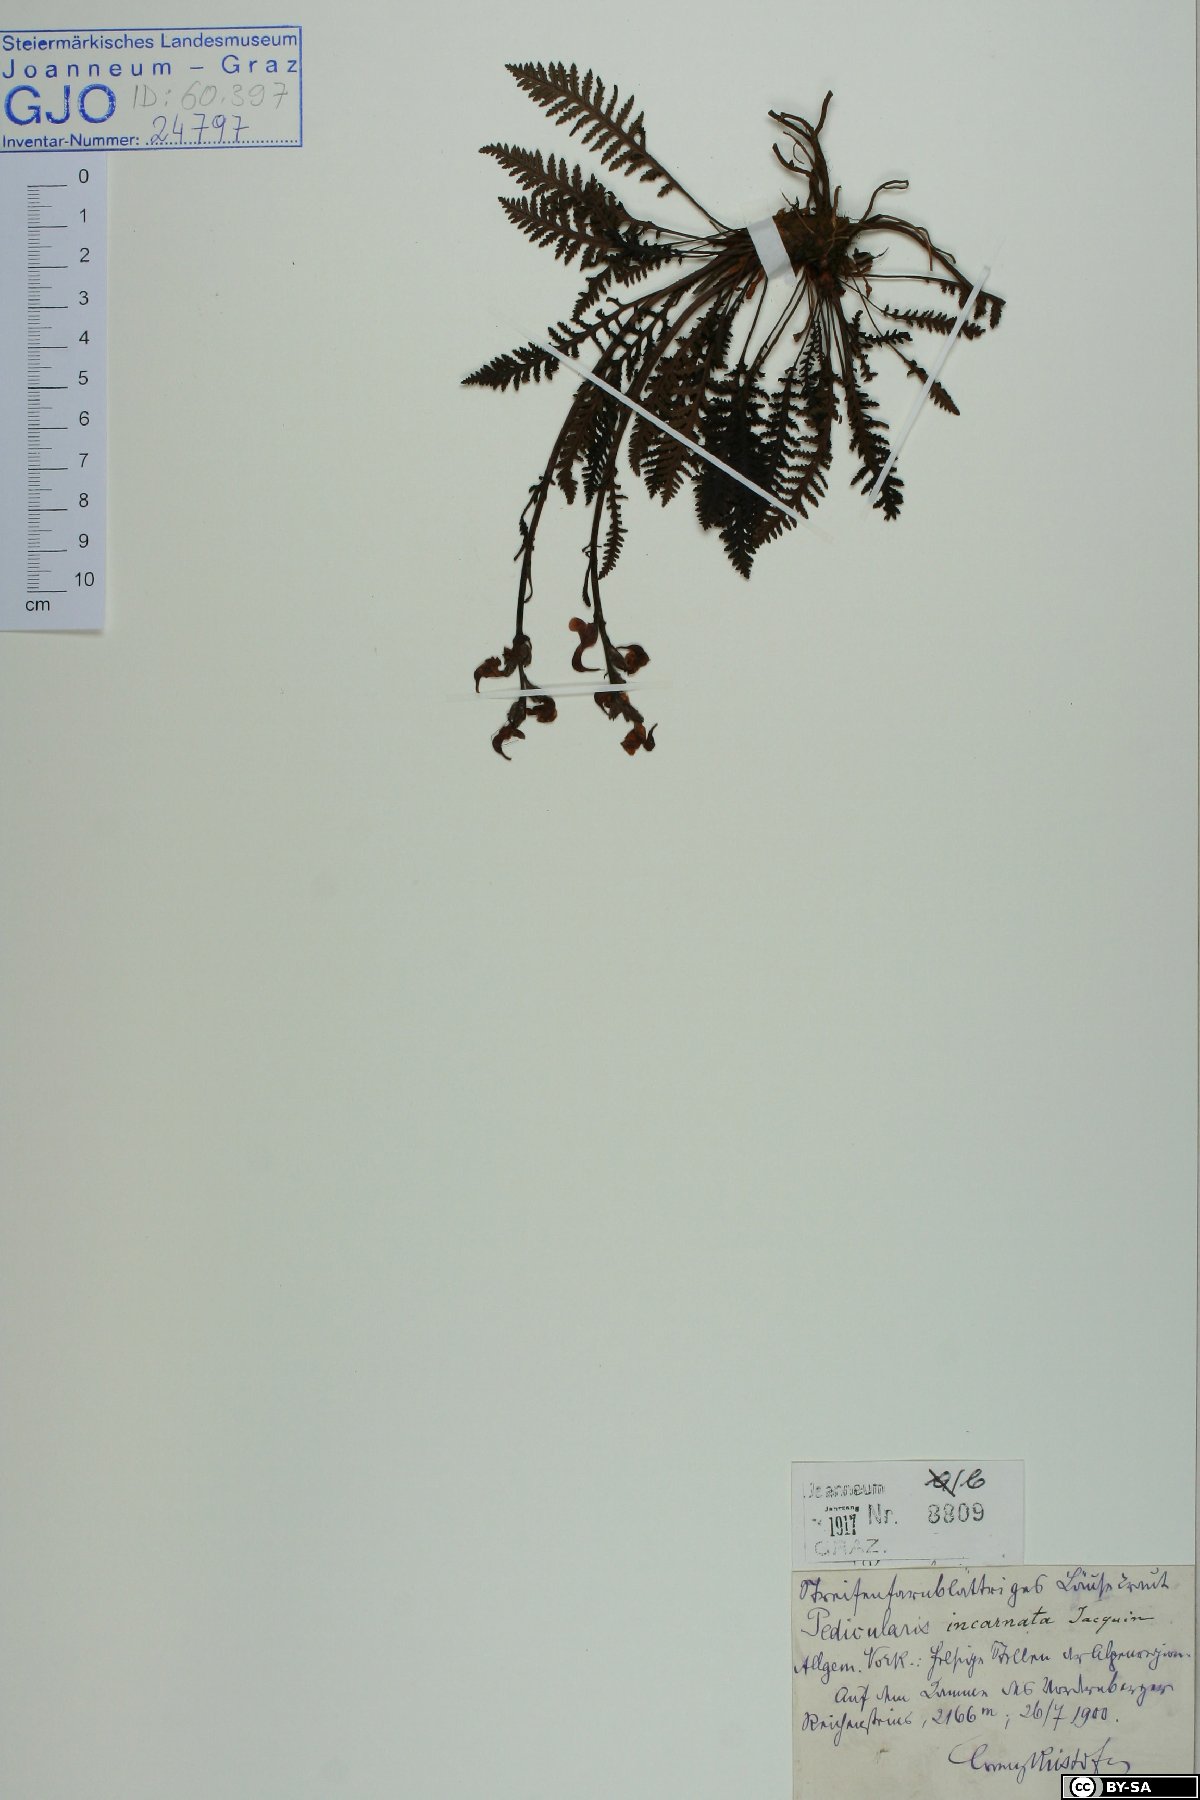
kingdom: Plantae
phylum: Tracheophyta
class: Magnoliopsida
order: Lamiales
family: Orobanchaceae
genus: Pedicularis
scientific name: Pedicularis rostratospicata
